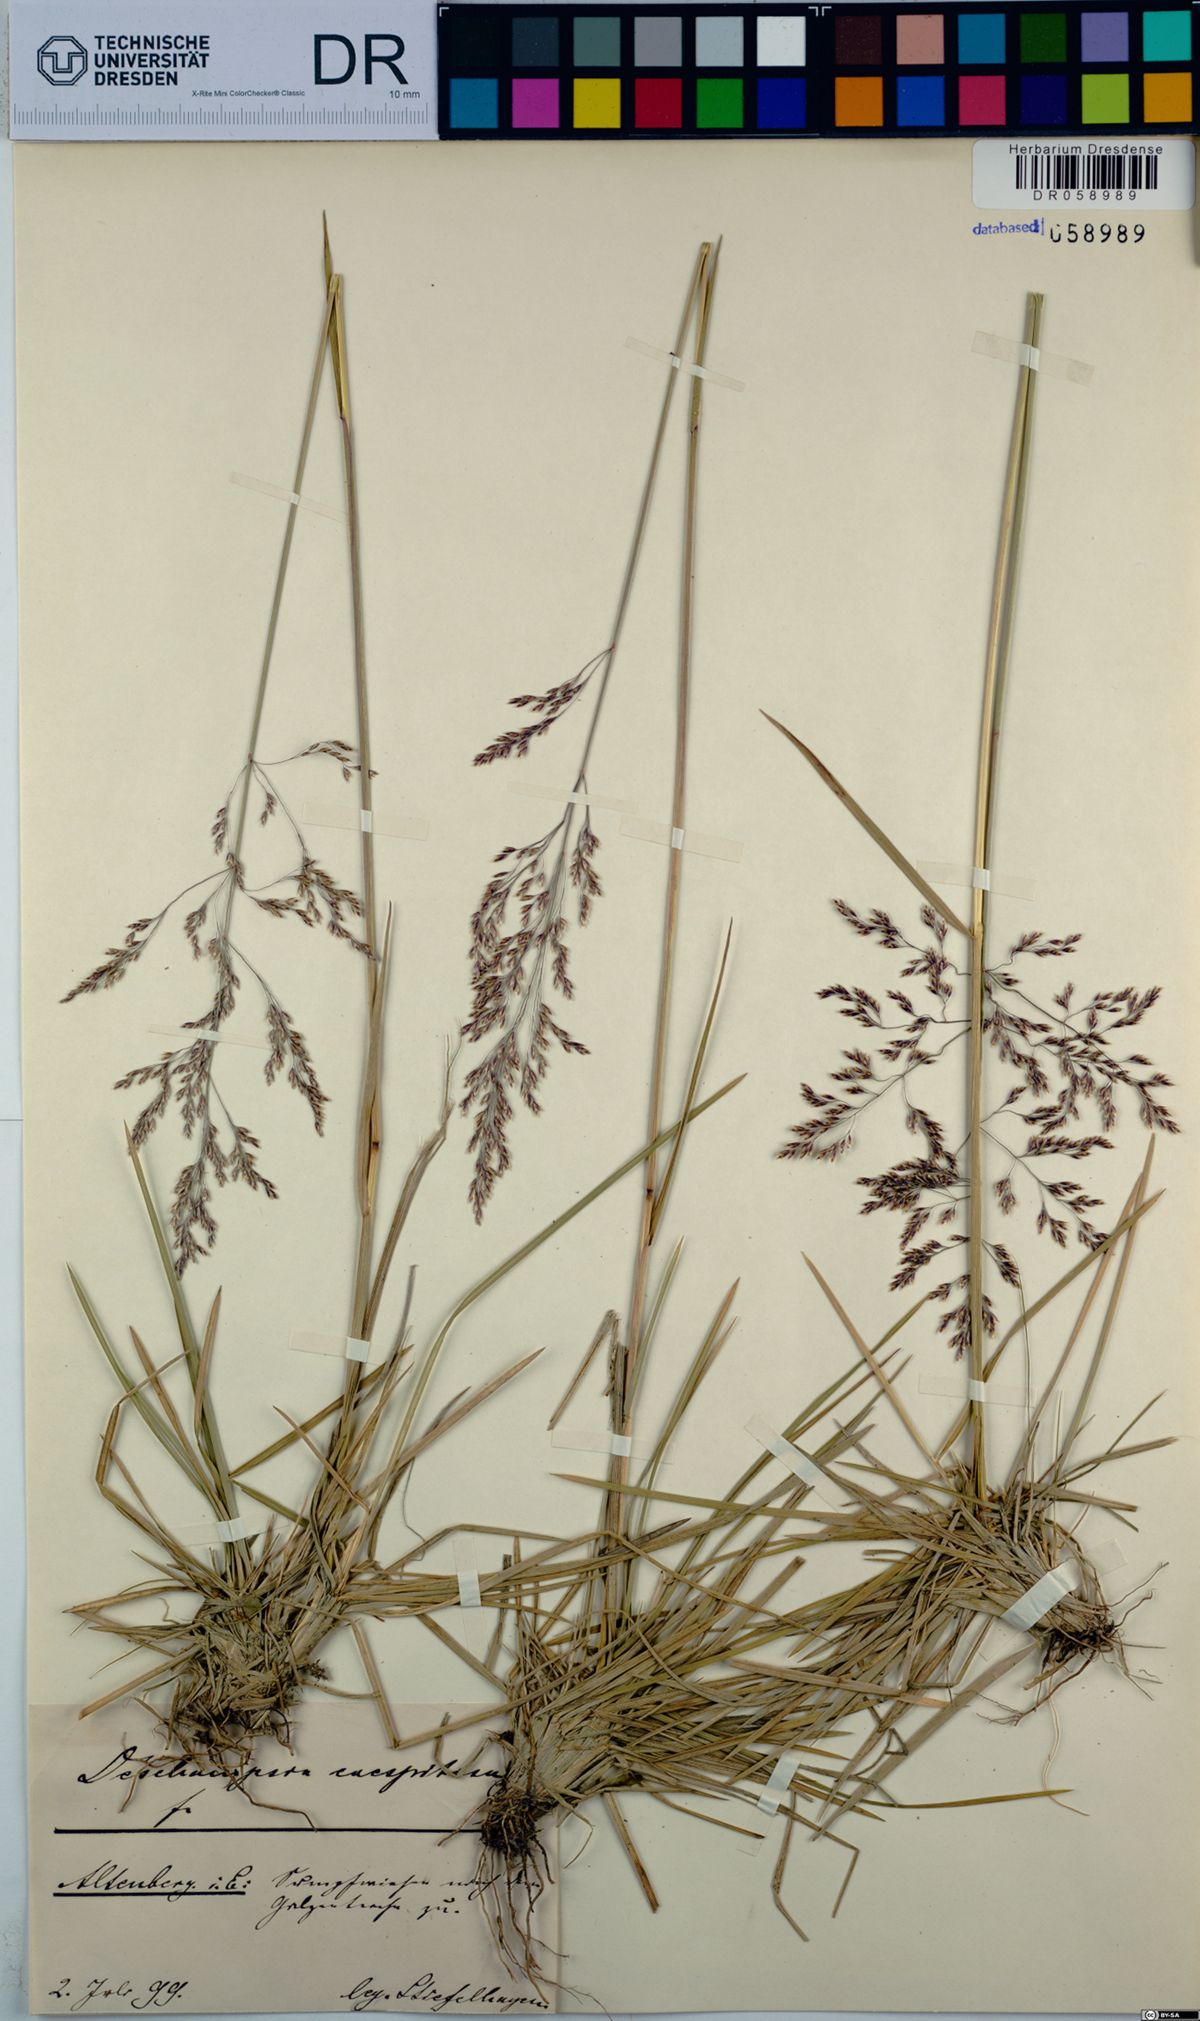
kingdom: Plantae
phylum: Tracheophyta
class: Liliopsida
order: Poales
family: Poaceae
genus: Deschampsia
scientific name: Deschampsia cespitosa
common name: Tufted hair-grass
